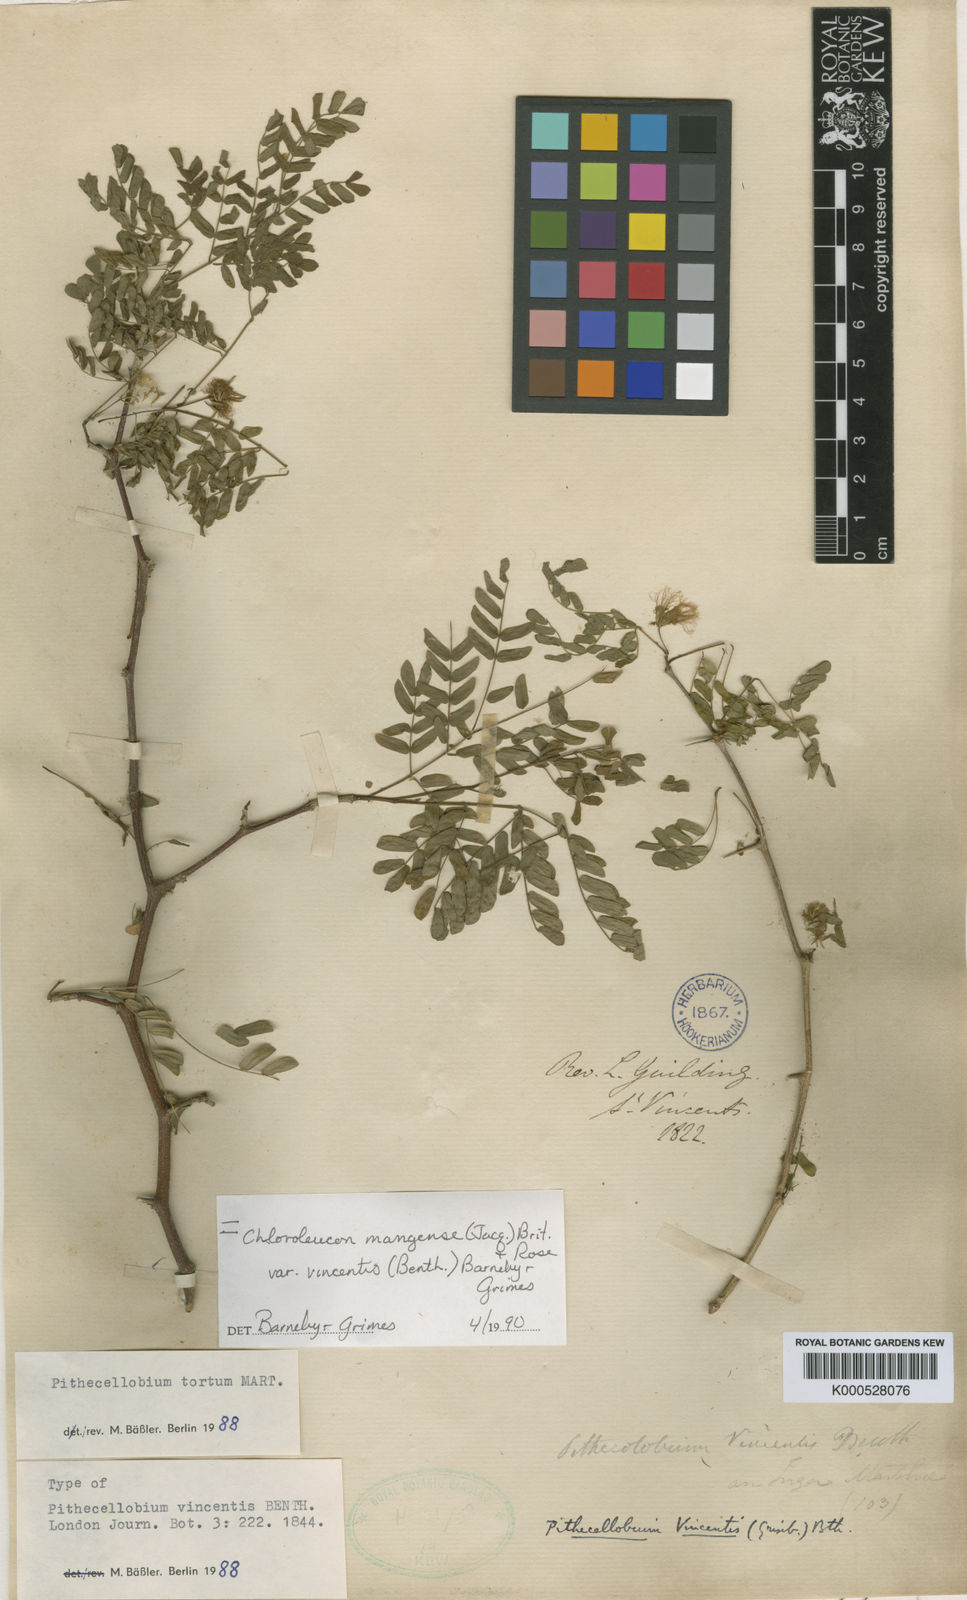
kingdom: Plantae
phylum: Tracheophyta
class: Magnoliopsida
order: Fabales
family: Fabaceae
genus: Chloroleucon
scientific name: Chloroleucon
